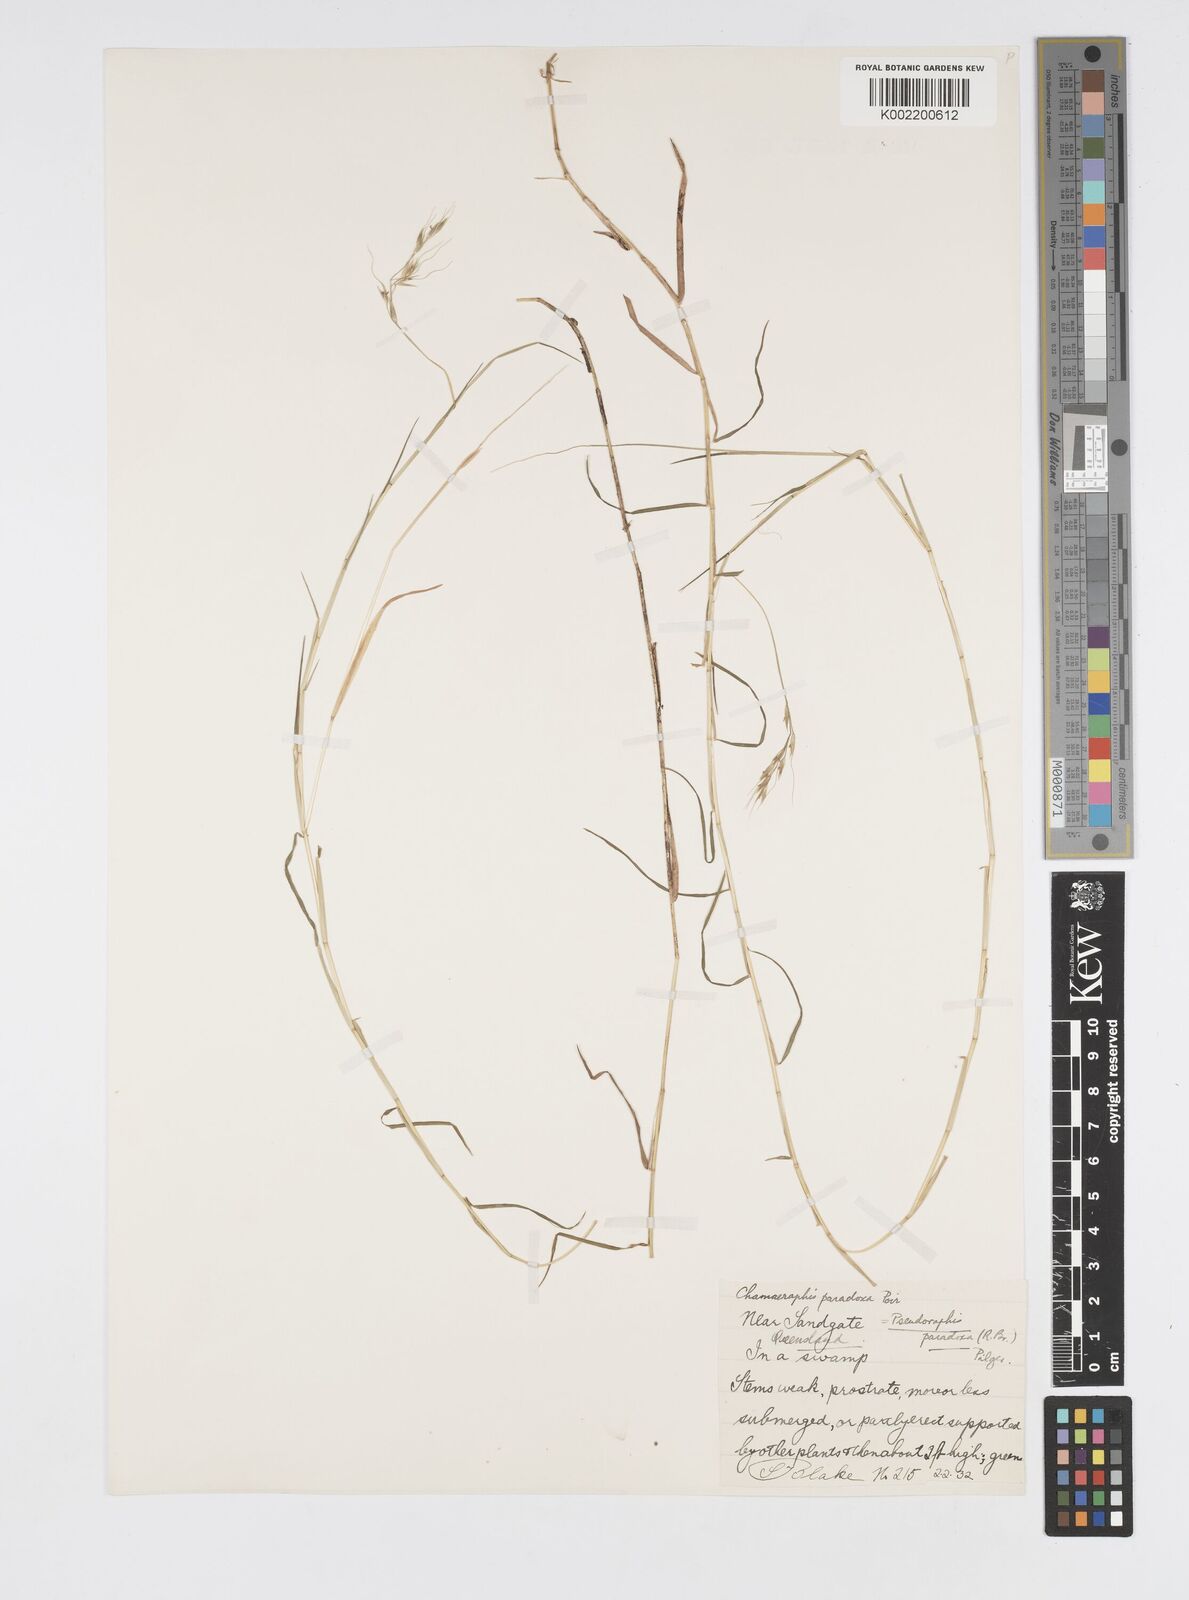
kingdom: Plantae
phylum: Tracheophyta
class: Liliopsida
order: Poales
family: Poaceae
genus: Pseudoraphis
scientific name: Pseudoraphis paradoxa
